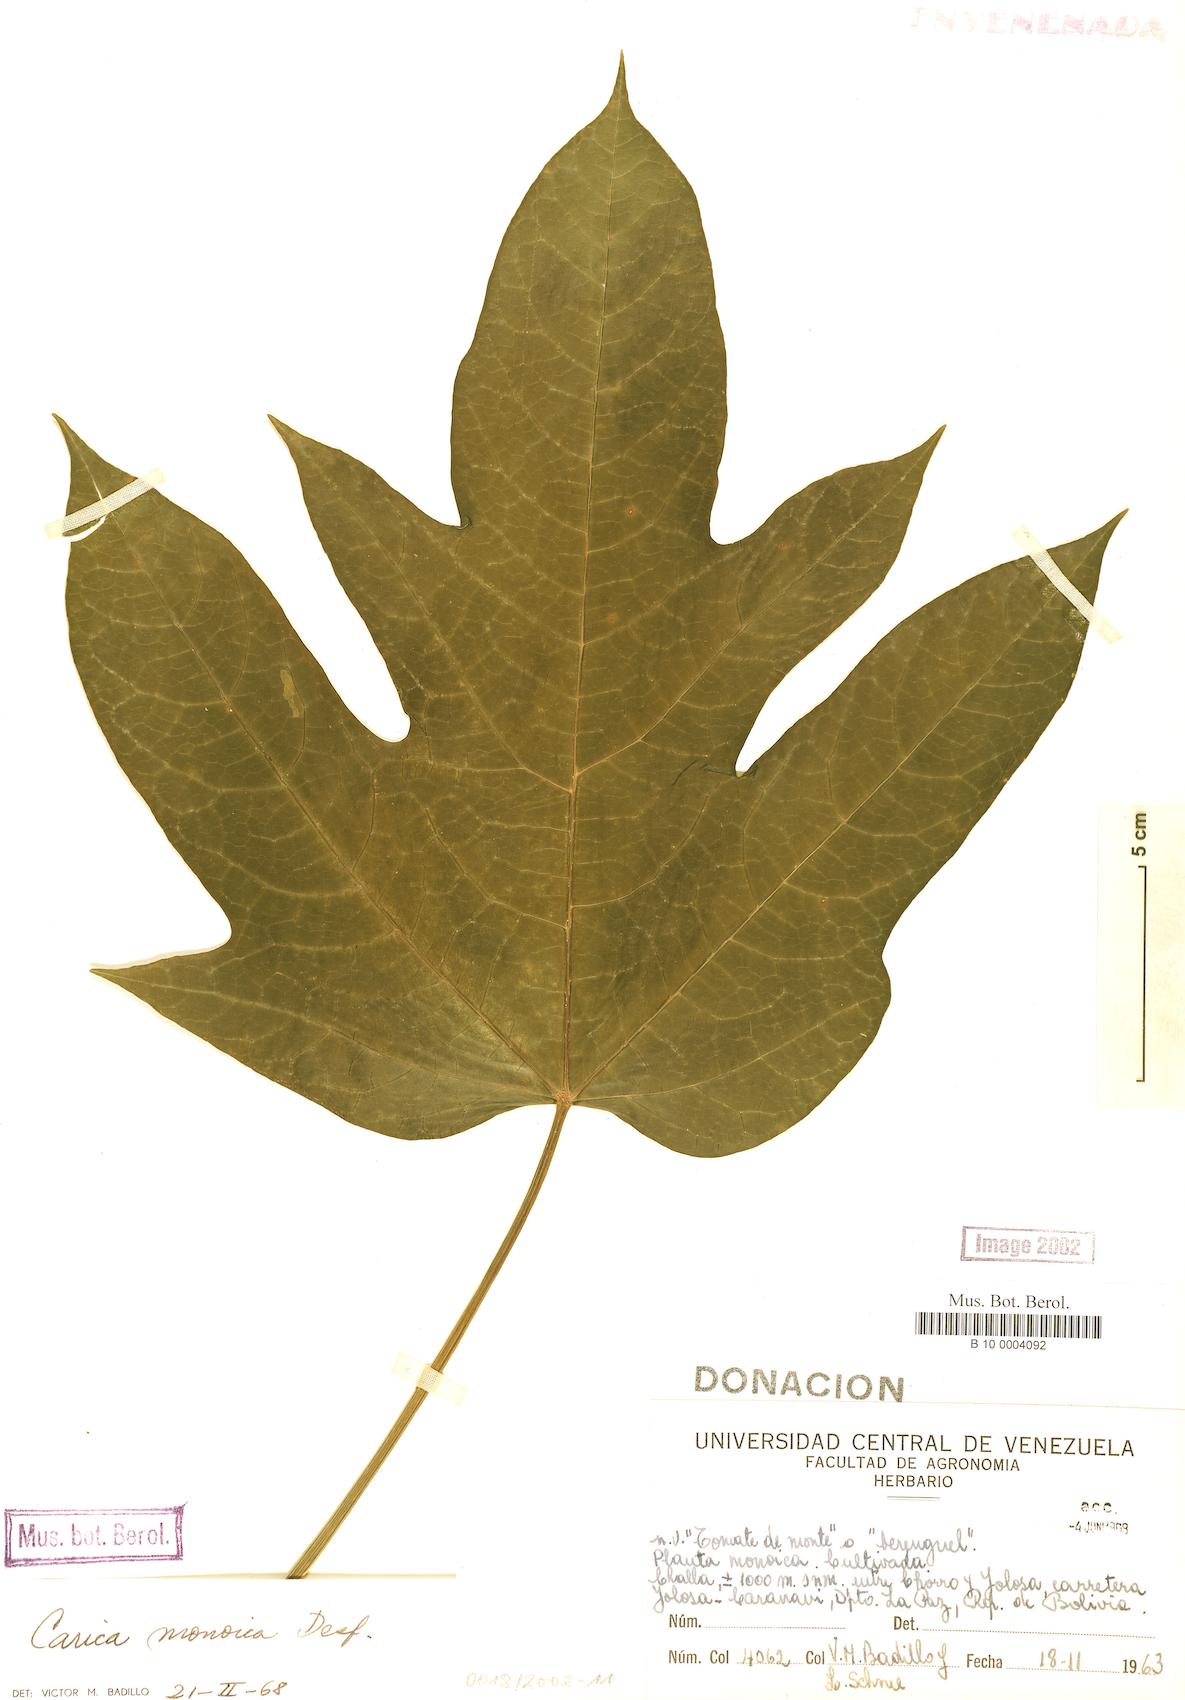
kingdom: Plantae
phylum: Tracheophyta
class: Magnoliopsida
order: Brassicales
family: Caricaceae
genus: Vasconcellea
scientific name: Vasconcellea monoica
